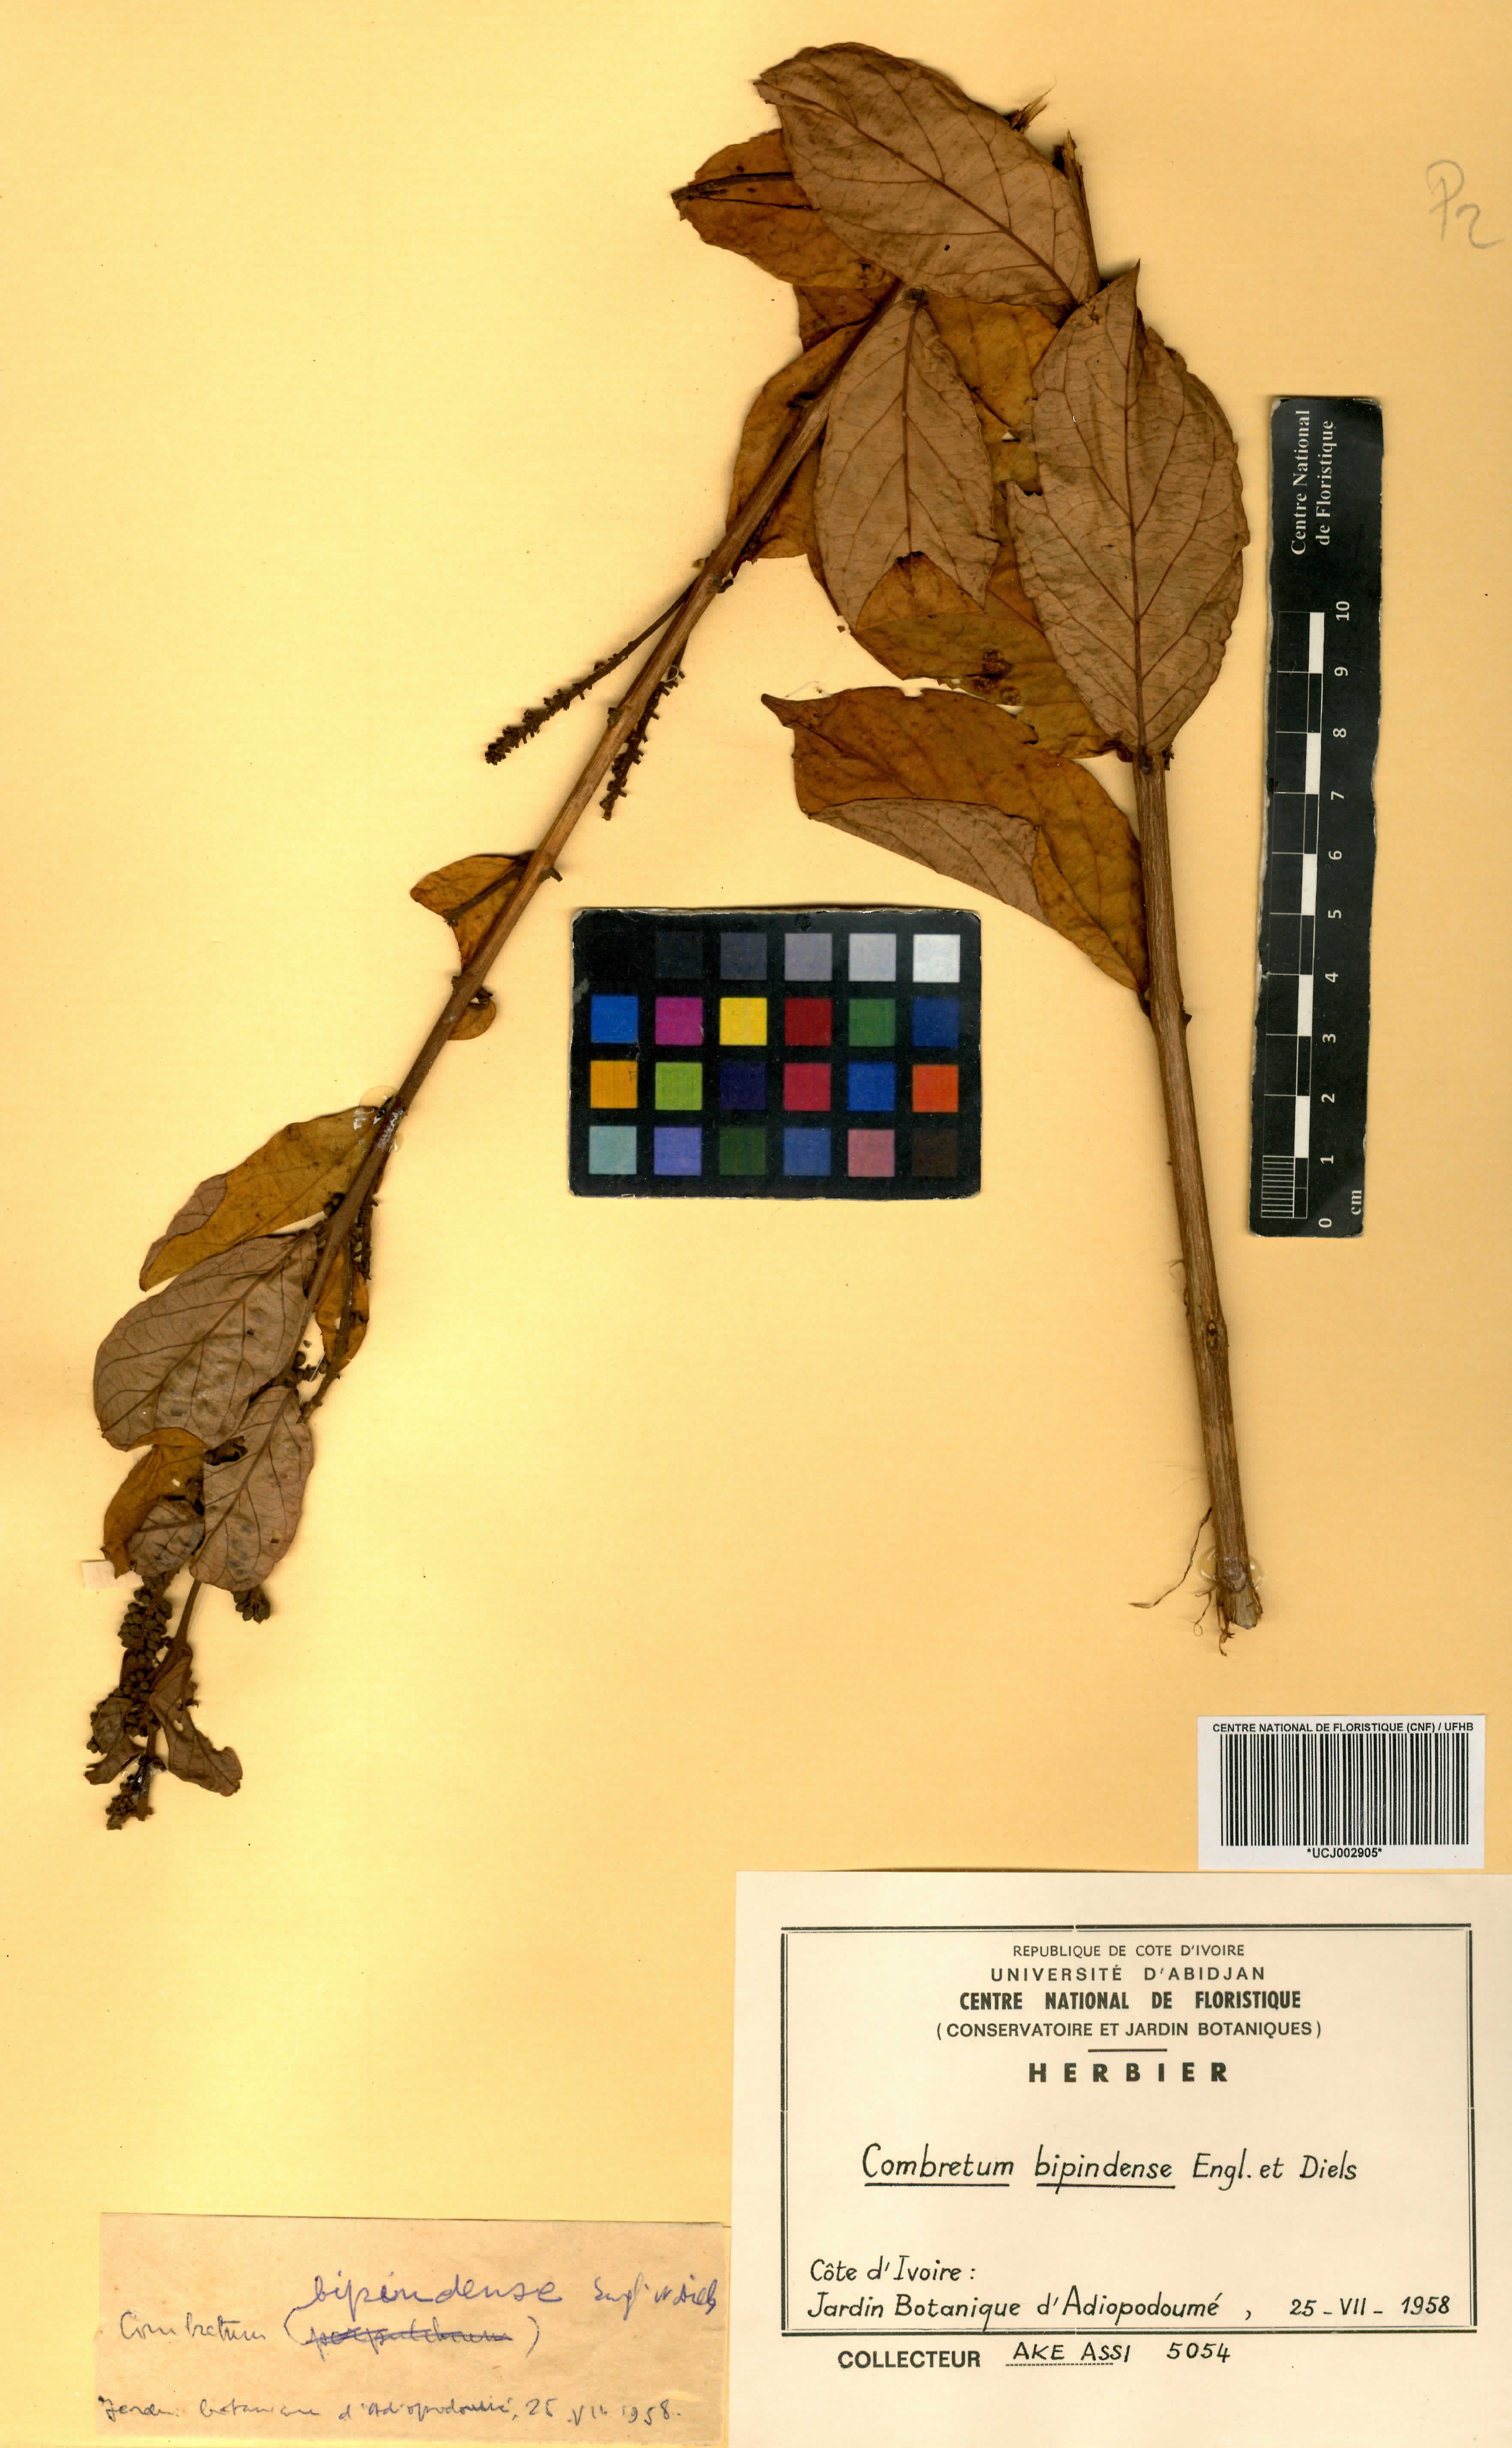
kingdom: Plantae
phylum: Tracheophyta
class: Magnoliopsida
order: Myrtales
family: Combretaceae
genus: Combretum
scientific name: Combretum bipindense
